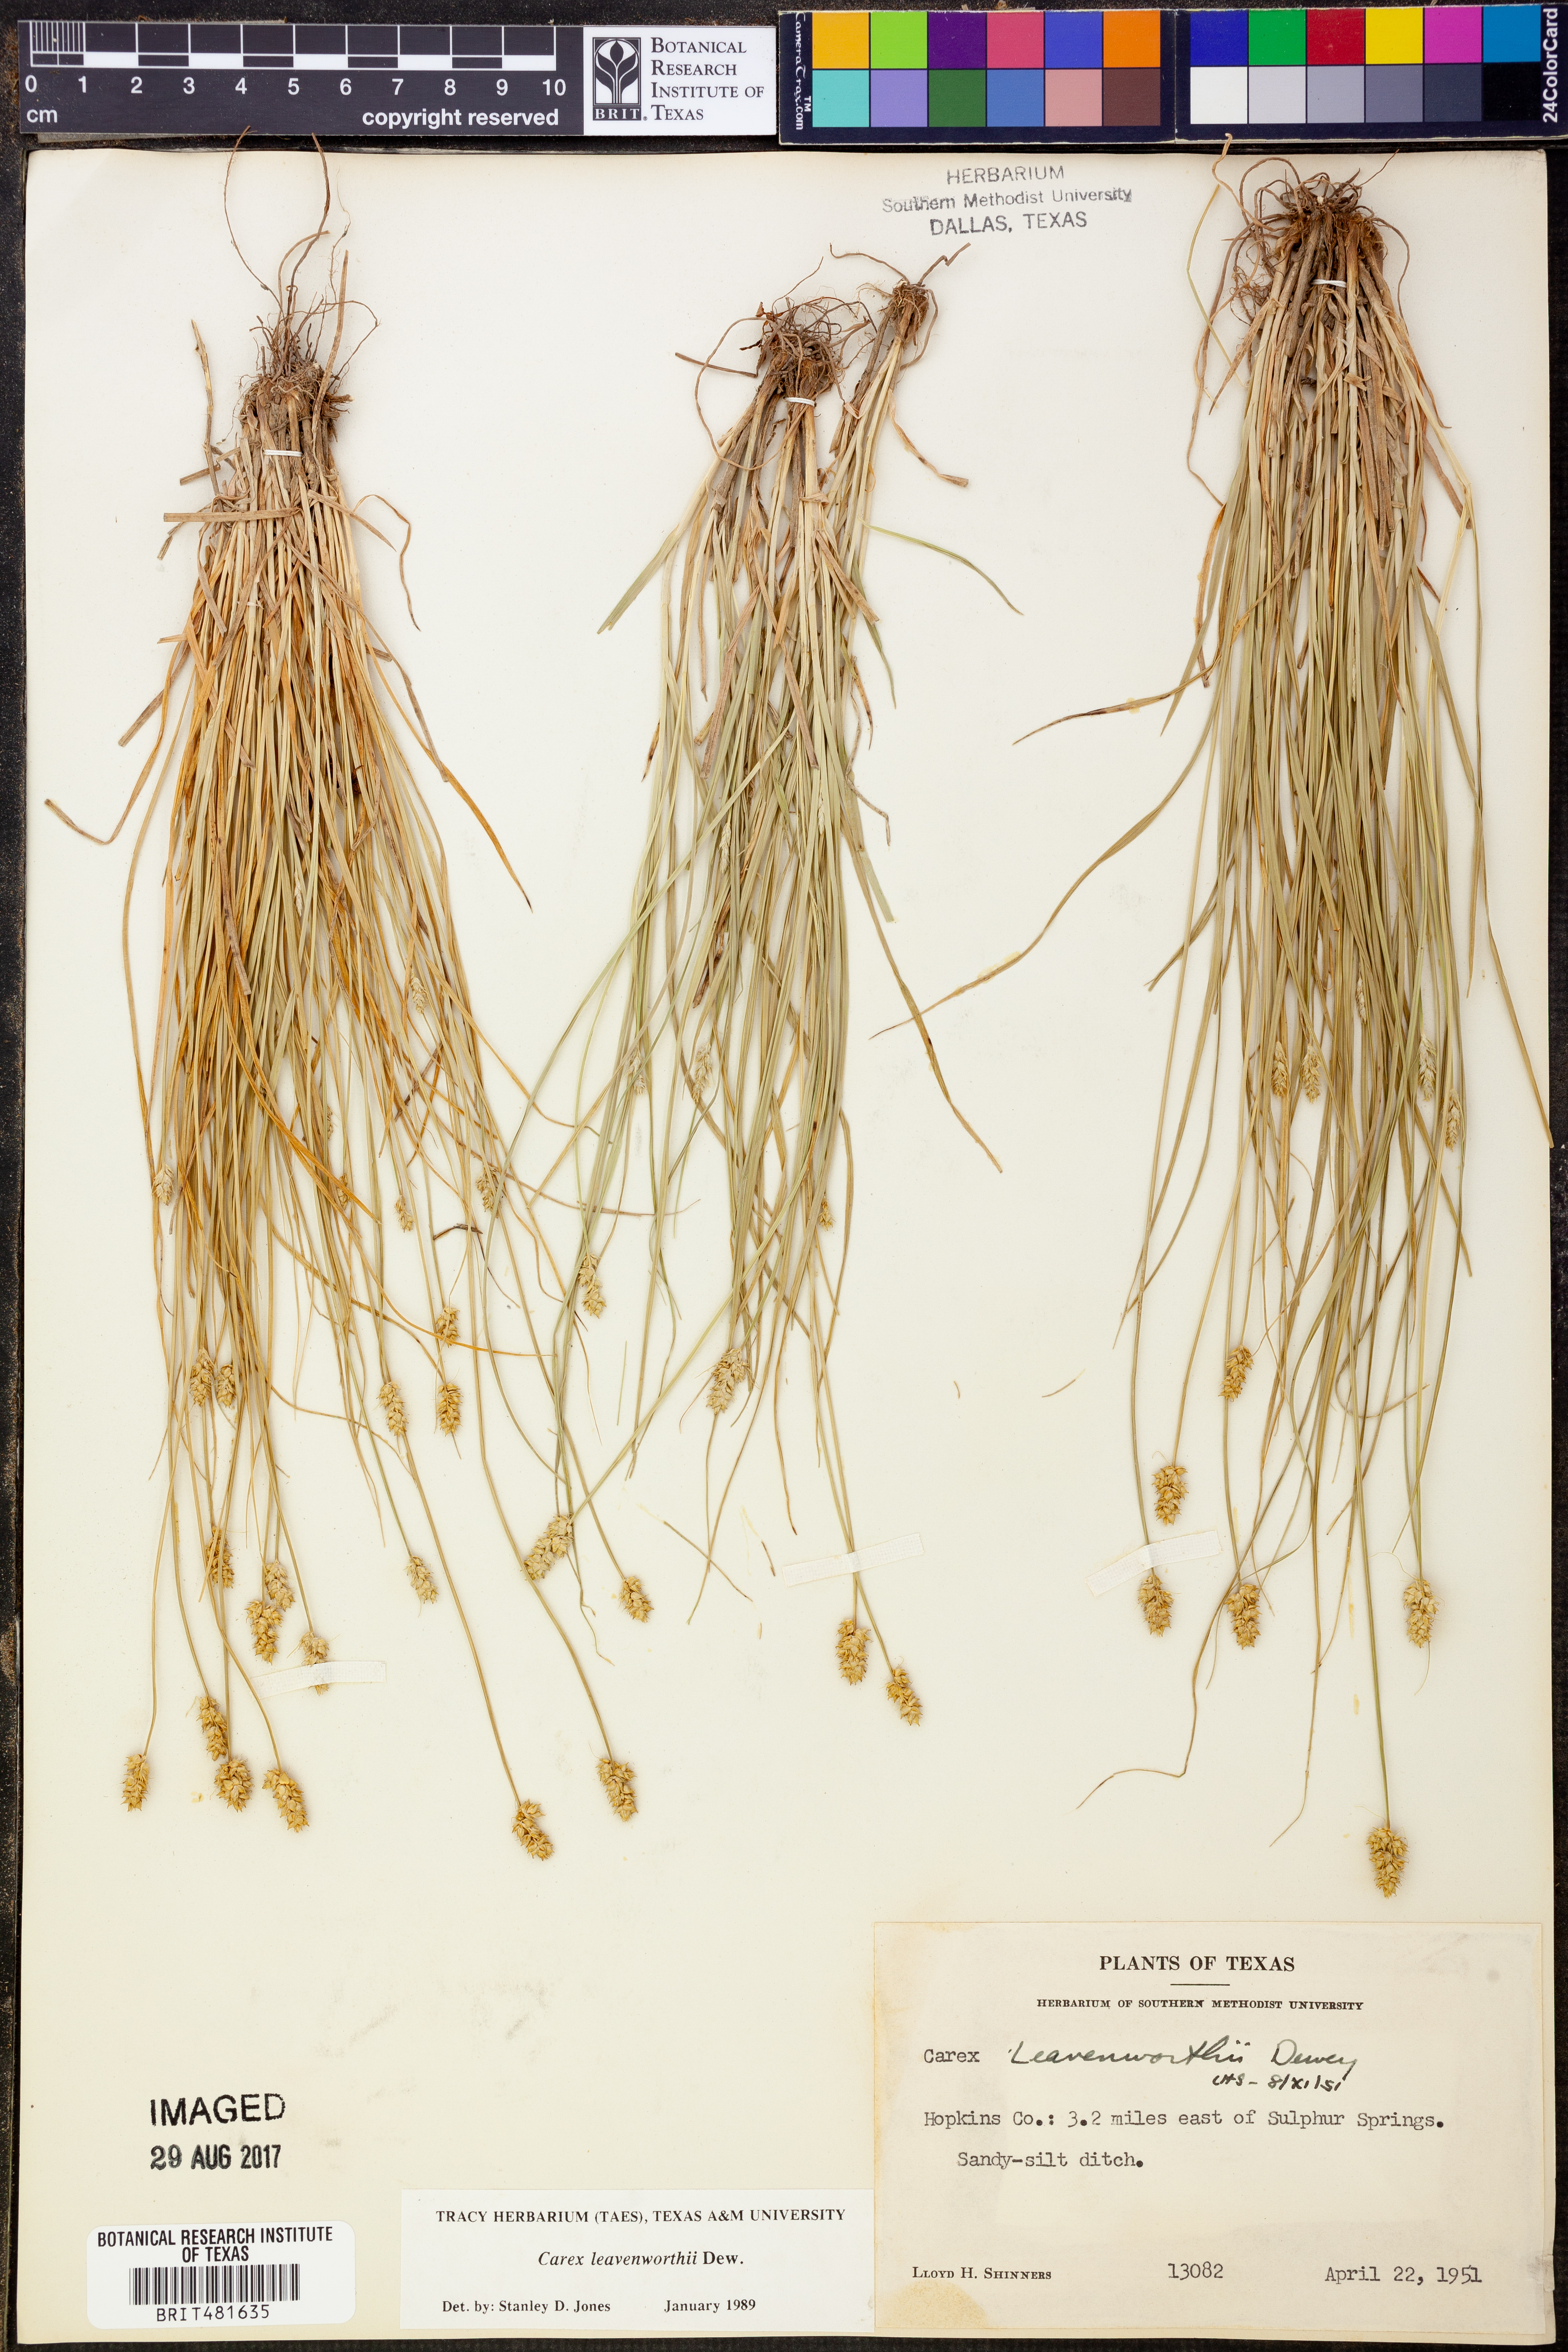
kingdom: Plantae
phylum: Tracheophyta
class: Liliopsida
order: Poales
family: Cyperaceae
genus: Carex
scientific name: Carex leavenworthii
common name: Leavenworth's bracted sedge
